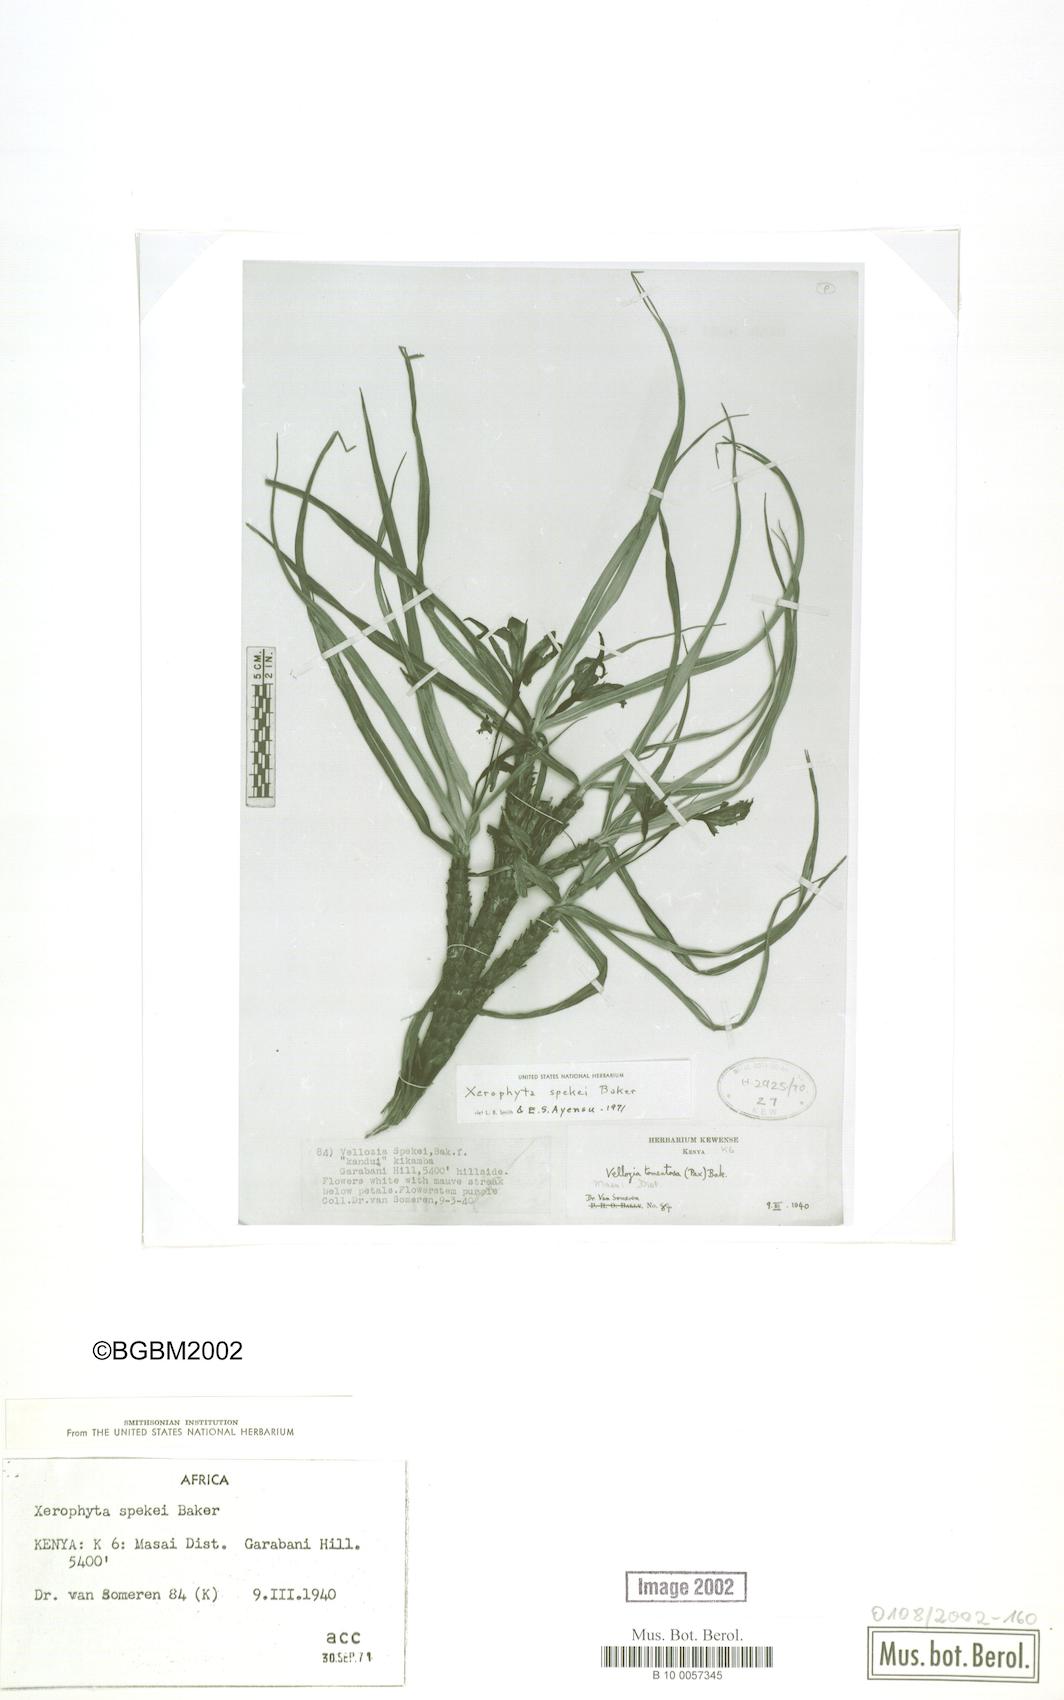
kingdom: Plantae
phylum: Tracheophyta
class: Liliopsida
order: Pandanales
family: Velloziaceae
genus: Xerophyta
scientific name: Xerophyta spekei
